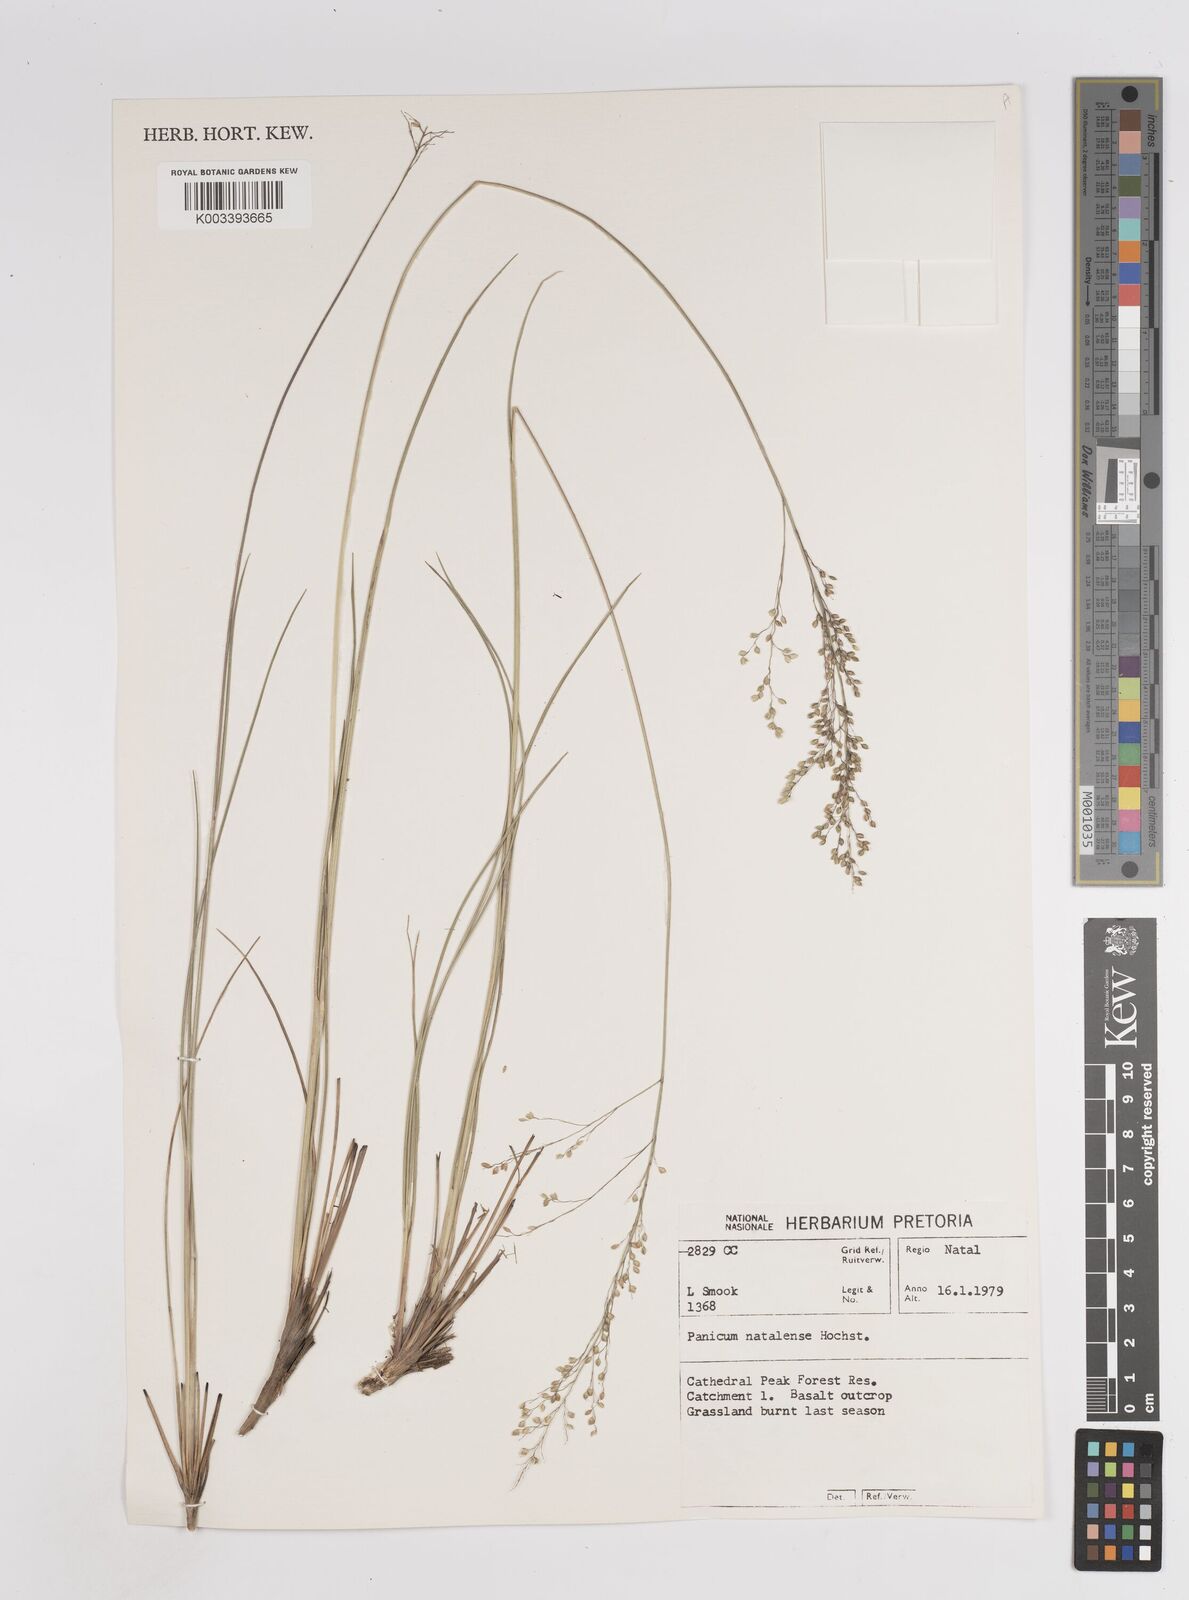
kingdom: Plantae
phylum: Tracheophyta
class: Liliopsida
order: Poales
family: Poaceae
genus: Trichanthecium
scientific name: Trichanthecium natalense
